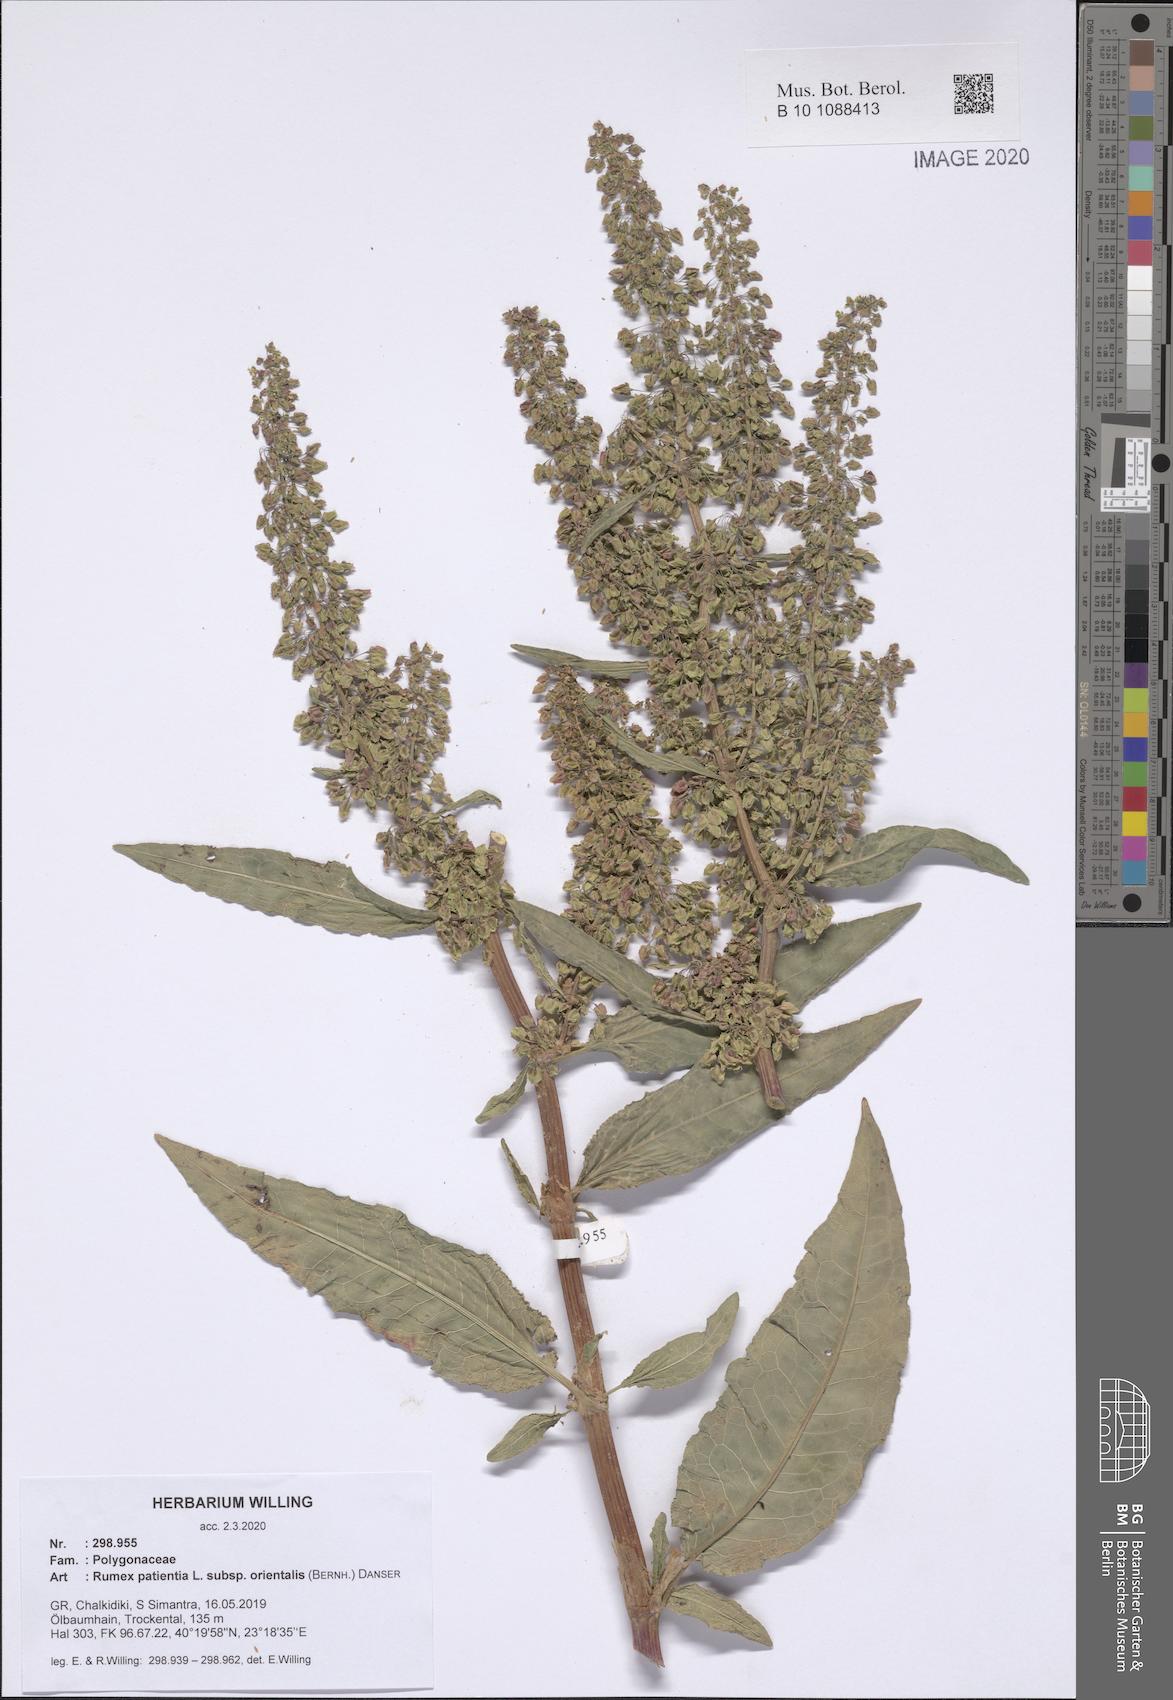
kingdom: Plantae
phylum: Tracheophyta
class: Magnoliopsida
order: Caryophyllales
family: Polygonaceae
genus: Rumex
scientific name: Rumex patientia
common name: Patience dock
